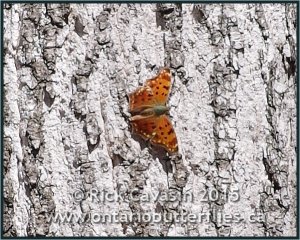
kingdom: Animalia
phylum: Arthropoda
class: Insecta
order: Lepidoptera
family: Nymphalidae
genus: Polygonia
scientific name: Polygonia comma
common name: Eastern Comma
